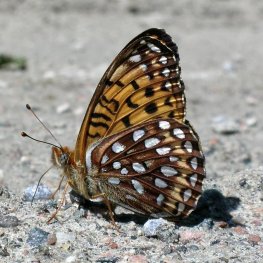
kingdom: Animalia
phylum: Arthropoda
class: Insecta
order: Lepidoptera
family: Nymphalidae
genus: Speyeria
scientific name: Speyeria atlantis
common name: Atlantis Fritillary
